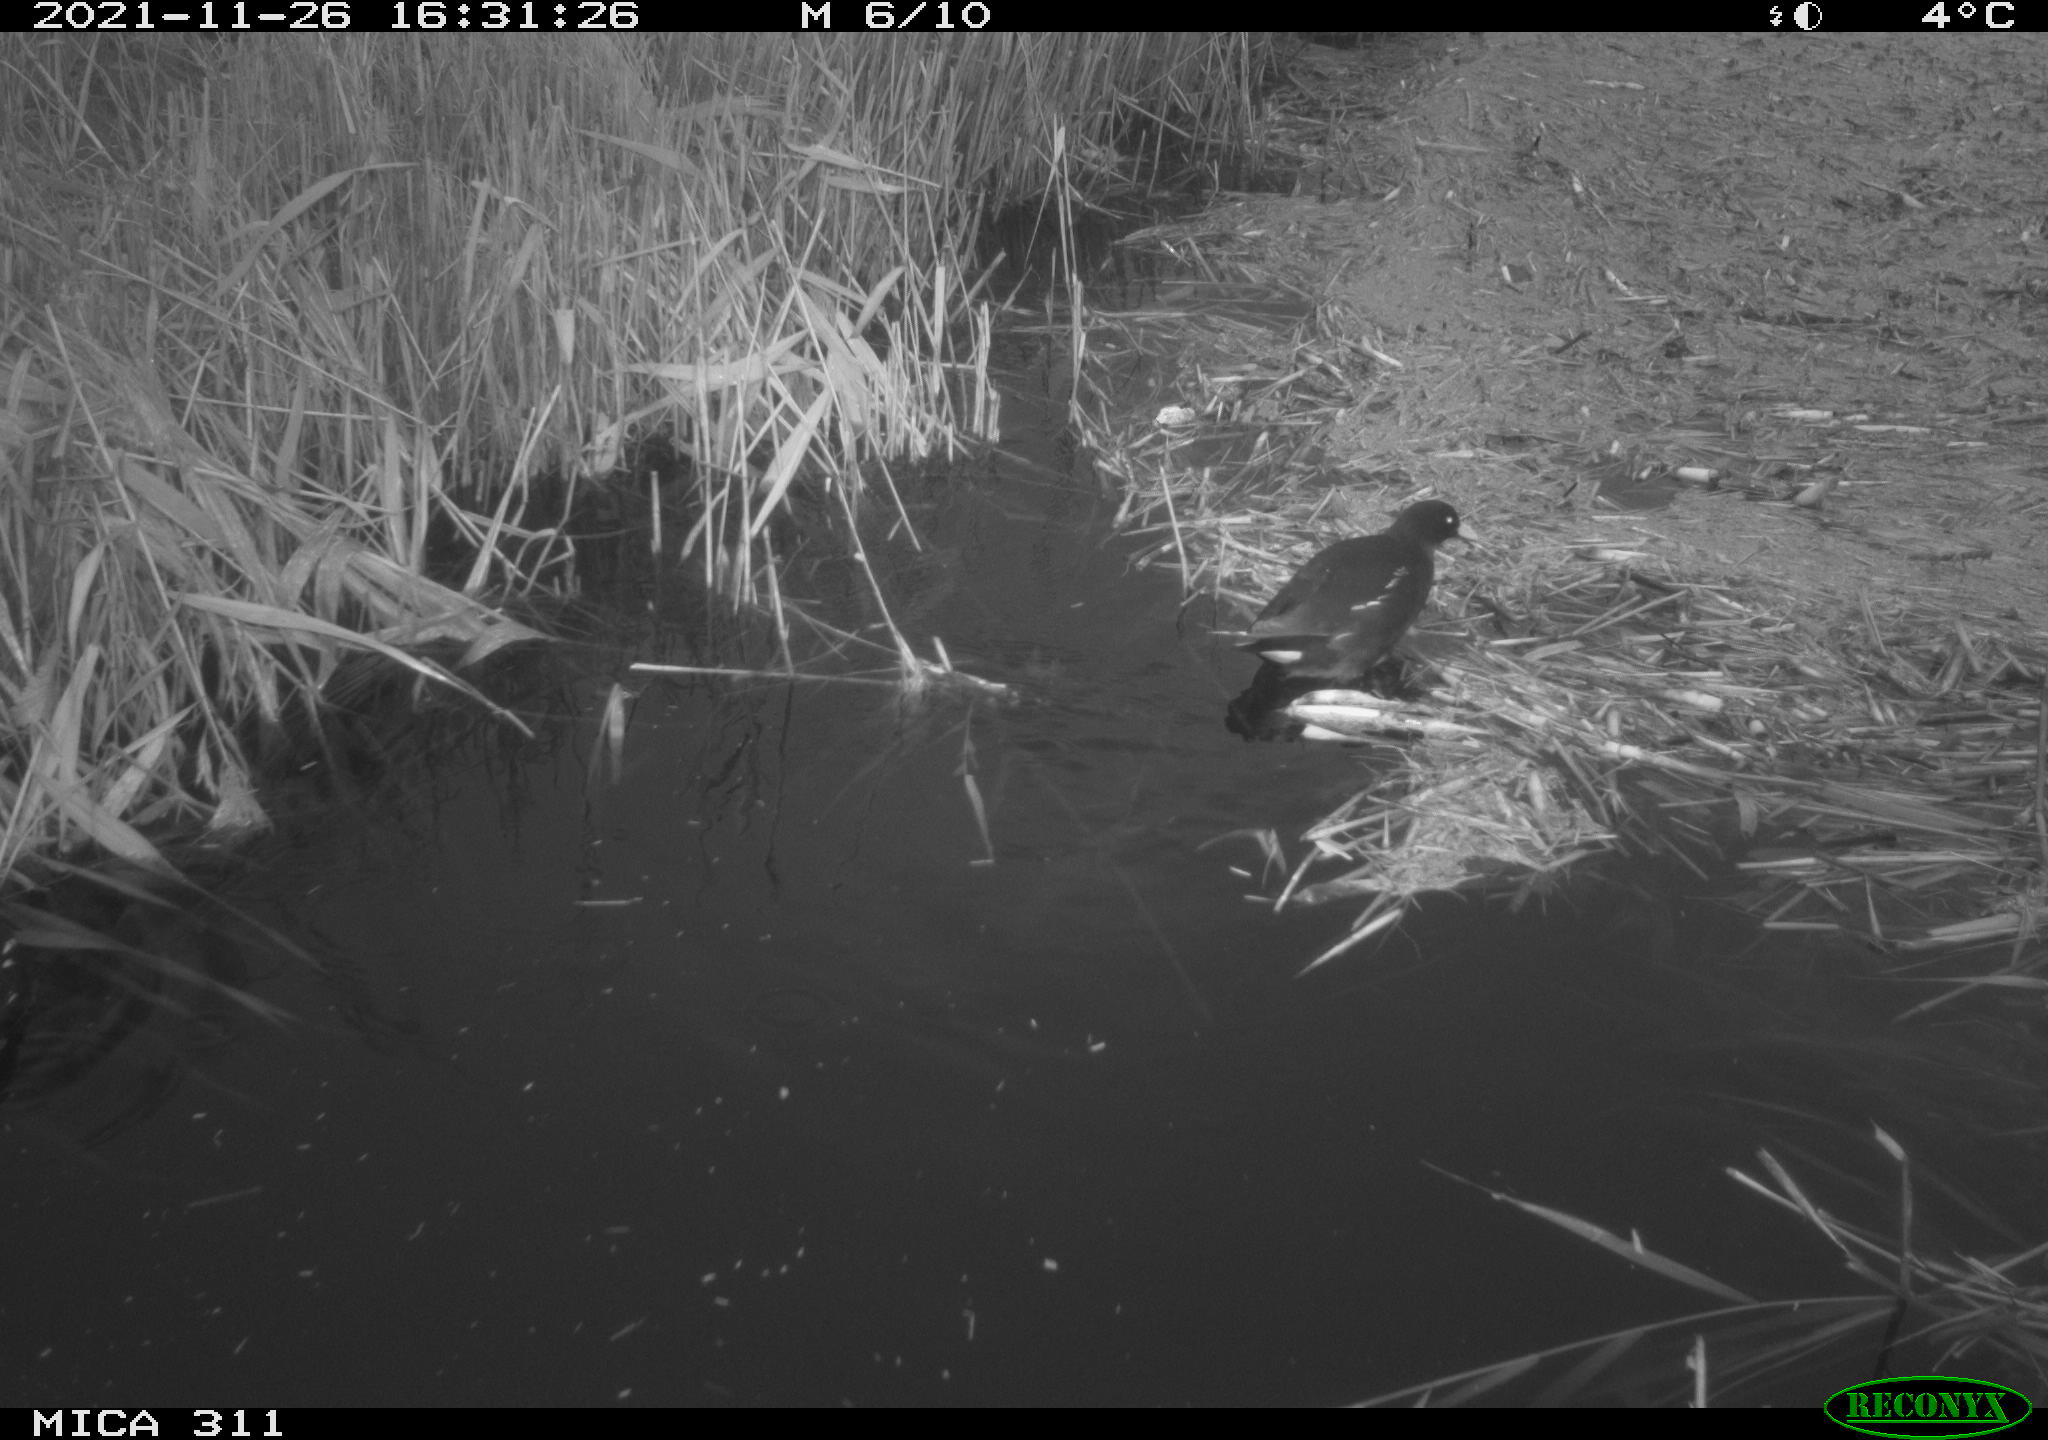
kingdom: Animalia
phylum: Chordata
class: Aves
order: Gruiformes
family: Rallidae
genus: Gallinula
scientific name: Gallinula chloropus
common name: Common moorhen
